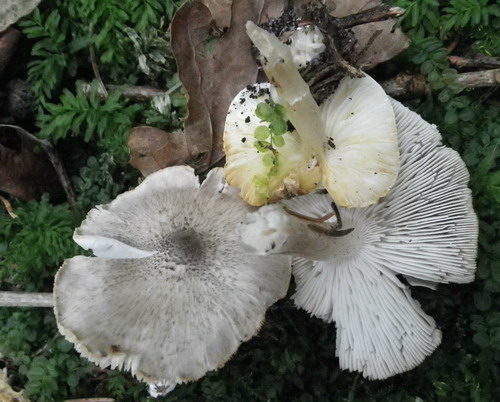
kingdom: Fungi
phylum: Basidiomycota
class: Agaricomycetes
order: Agaricales
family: Tricholomataceae
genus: Tricholoma
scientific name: Tricholoma scalpturatum
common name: gulplettet ridderhat
